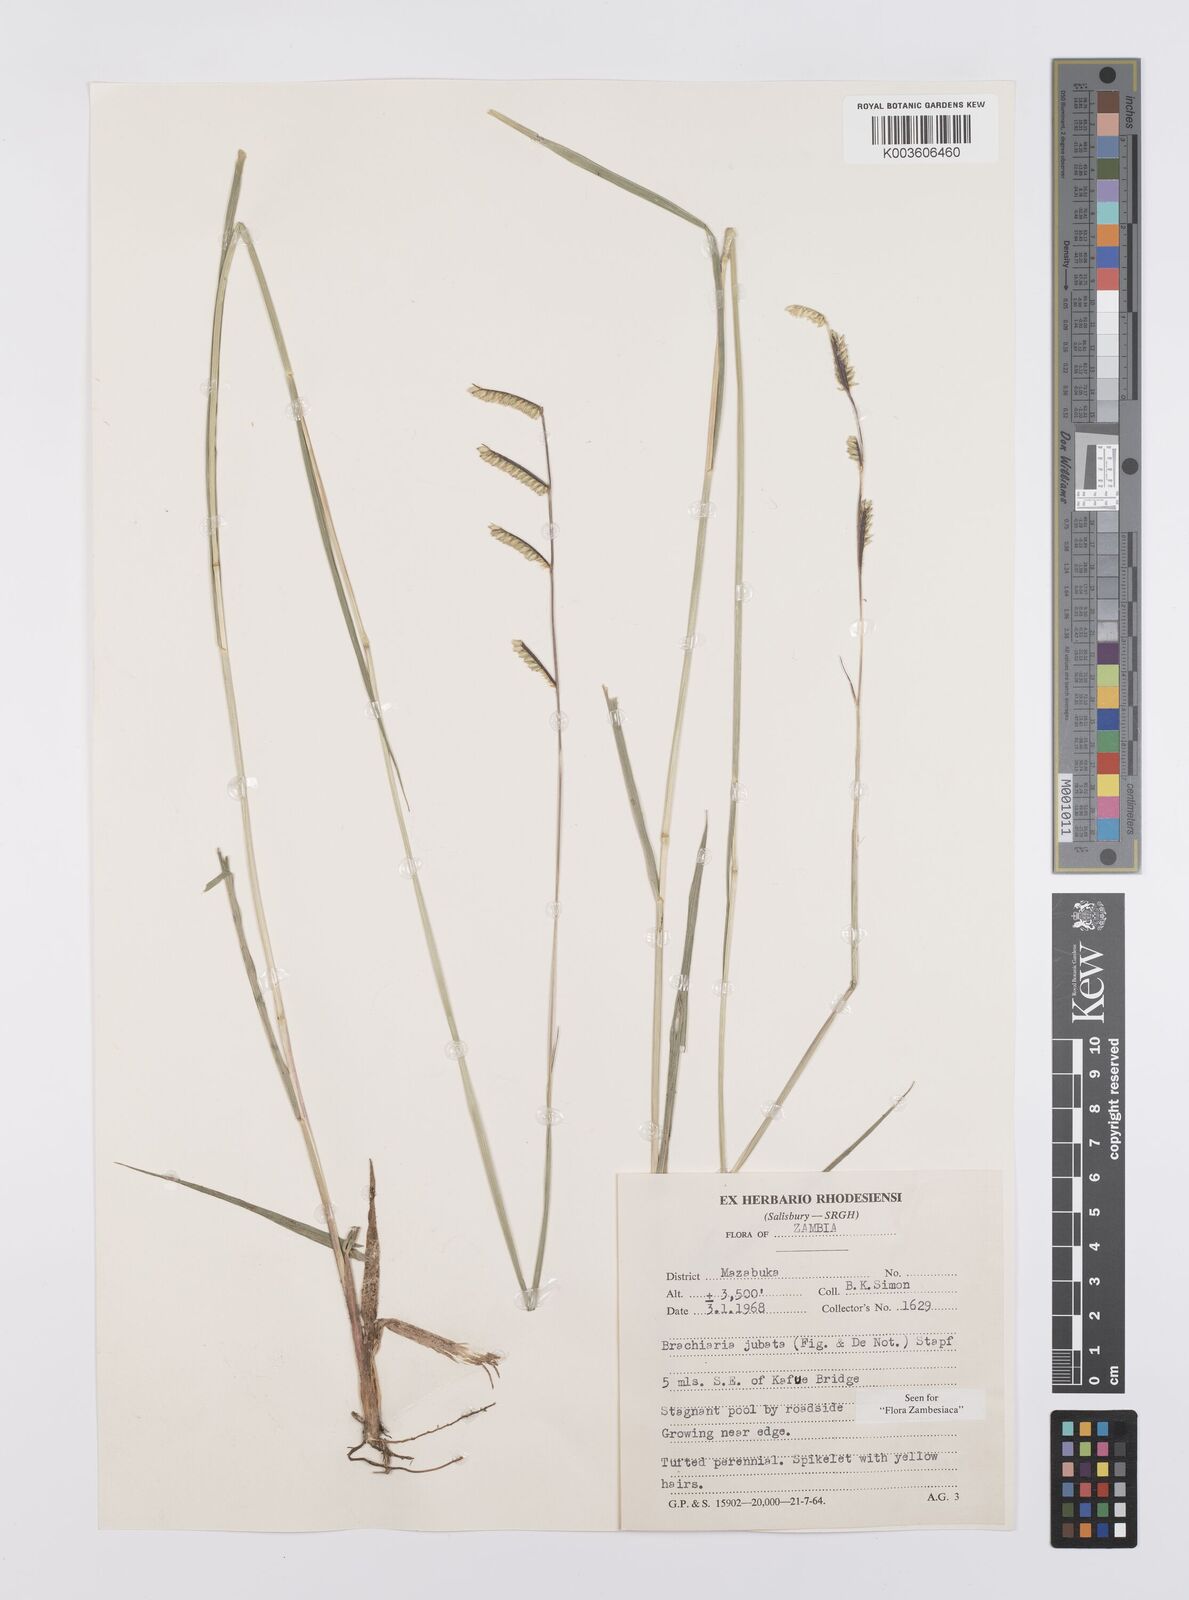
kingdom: Plantae
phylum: Tracheophyta
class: Liliopsida
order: Poales
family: Poaceae
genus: Urochloa
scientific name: Urochloa jubata
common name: Buffalograss
